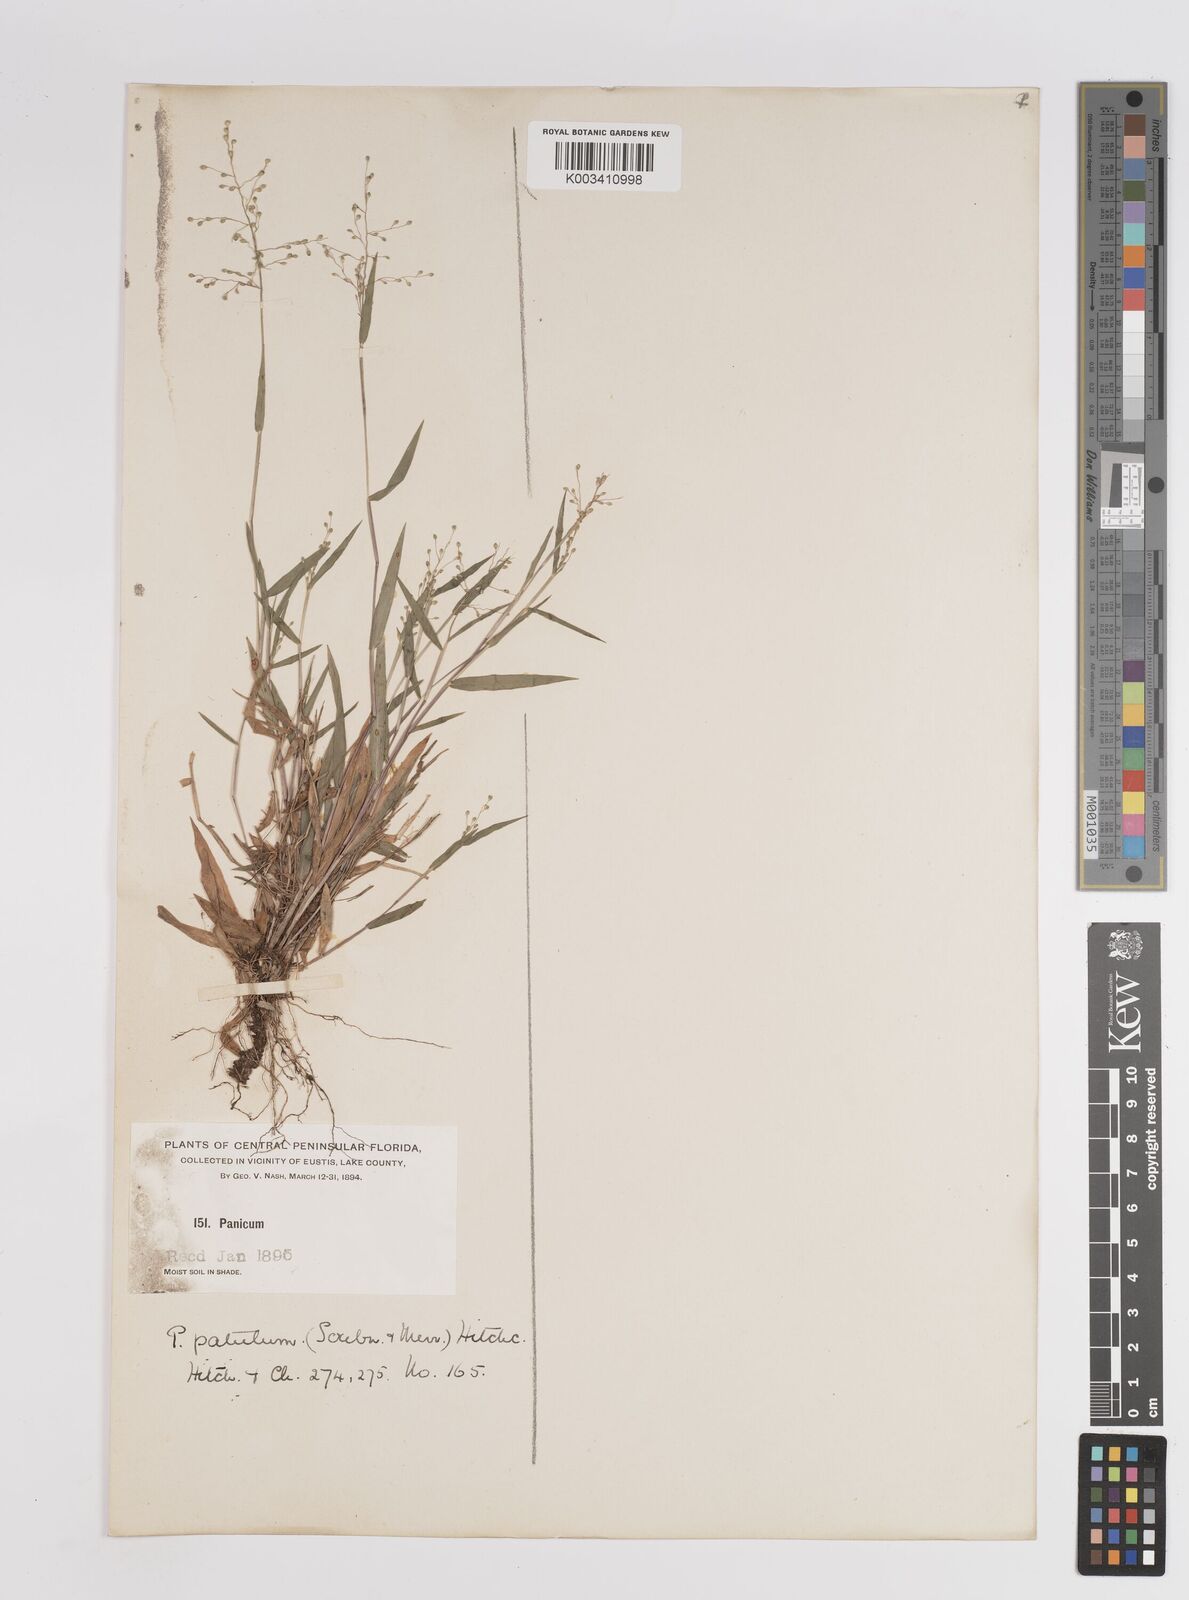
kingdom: Plantae
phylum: Tracheophyta
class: Liliopsida
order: Poales
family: Poaceae
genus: Dichanthelium
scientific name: Dichanthelium patulum
